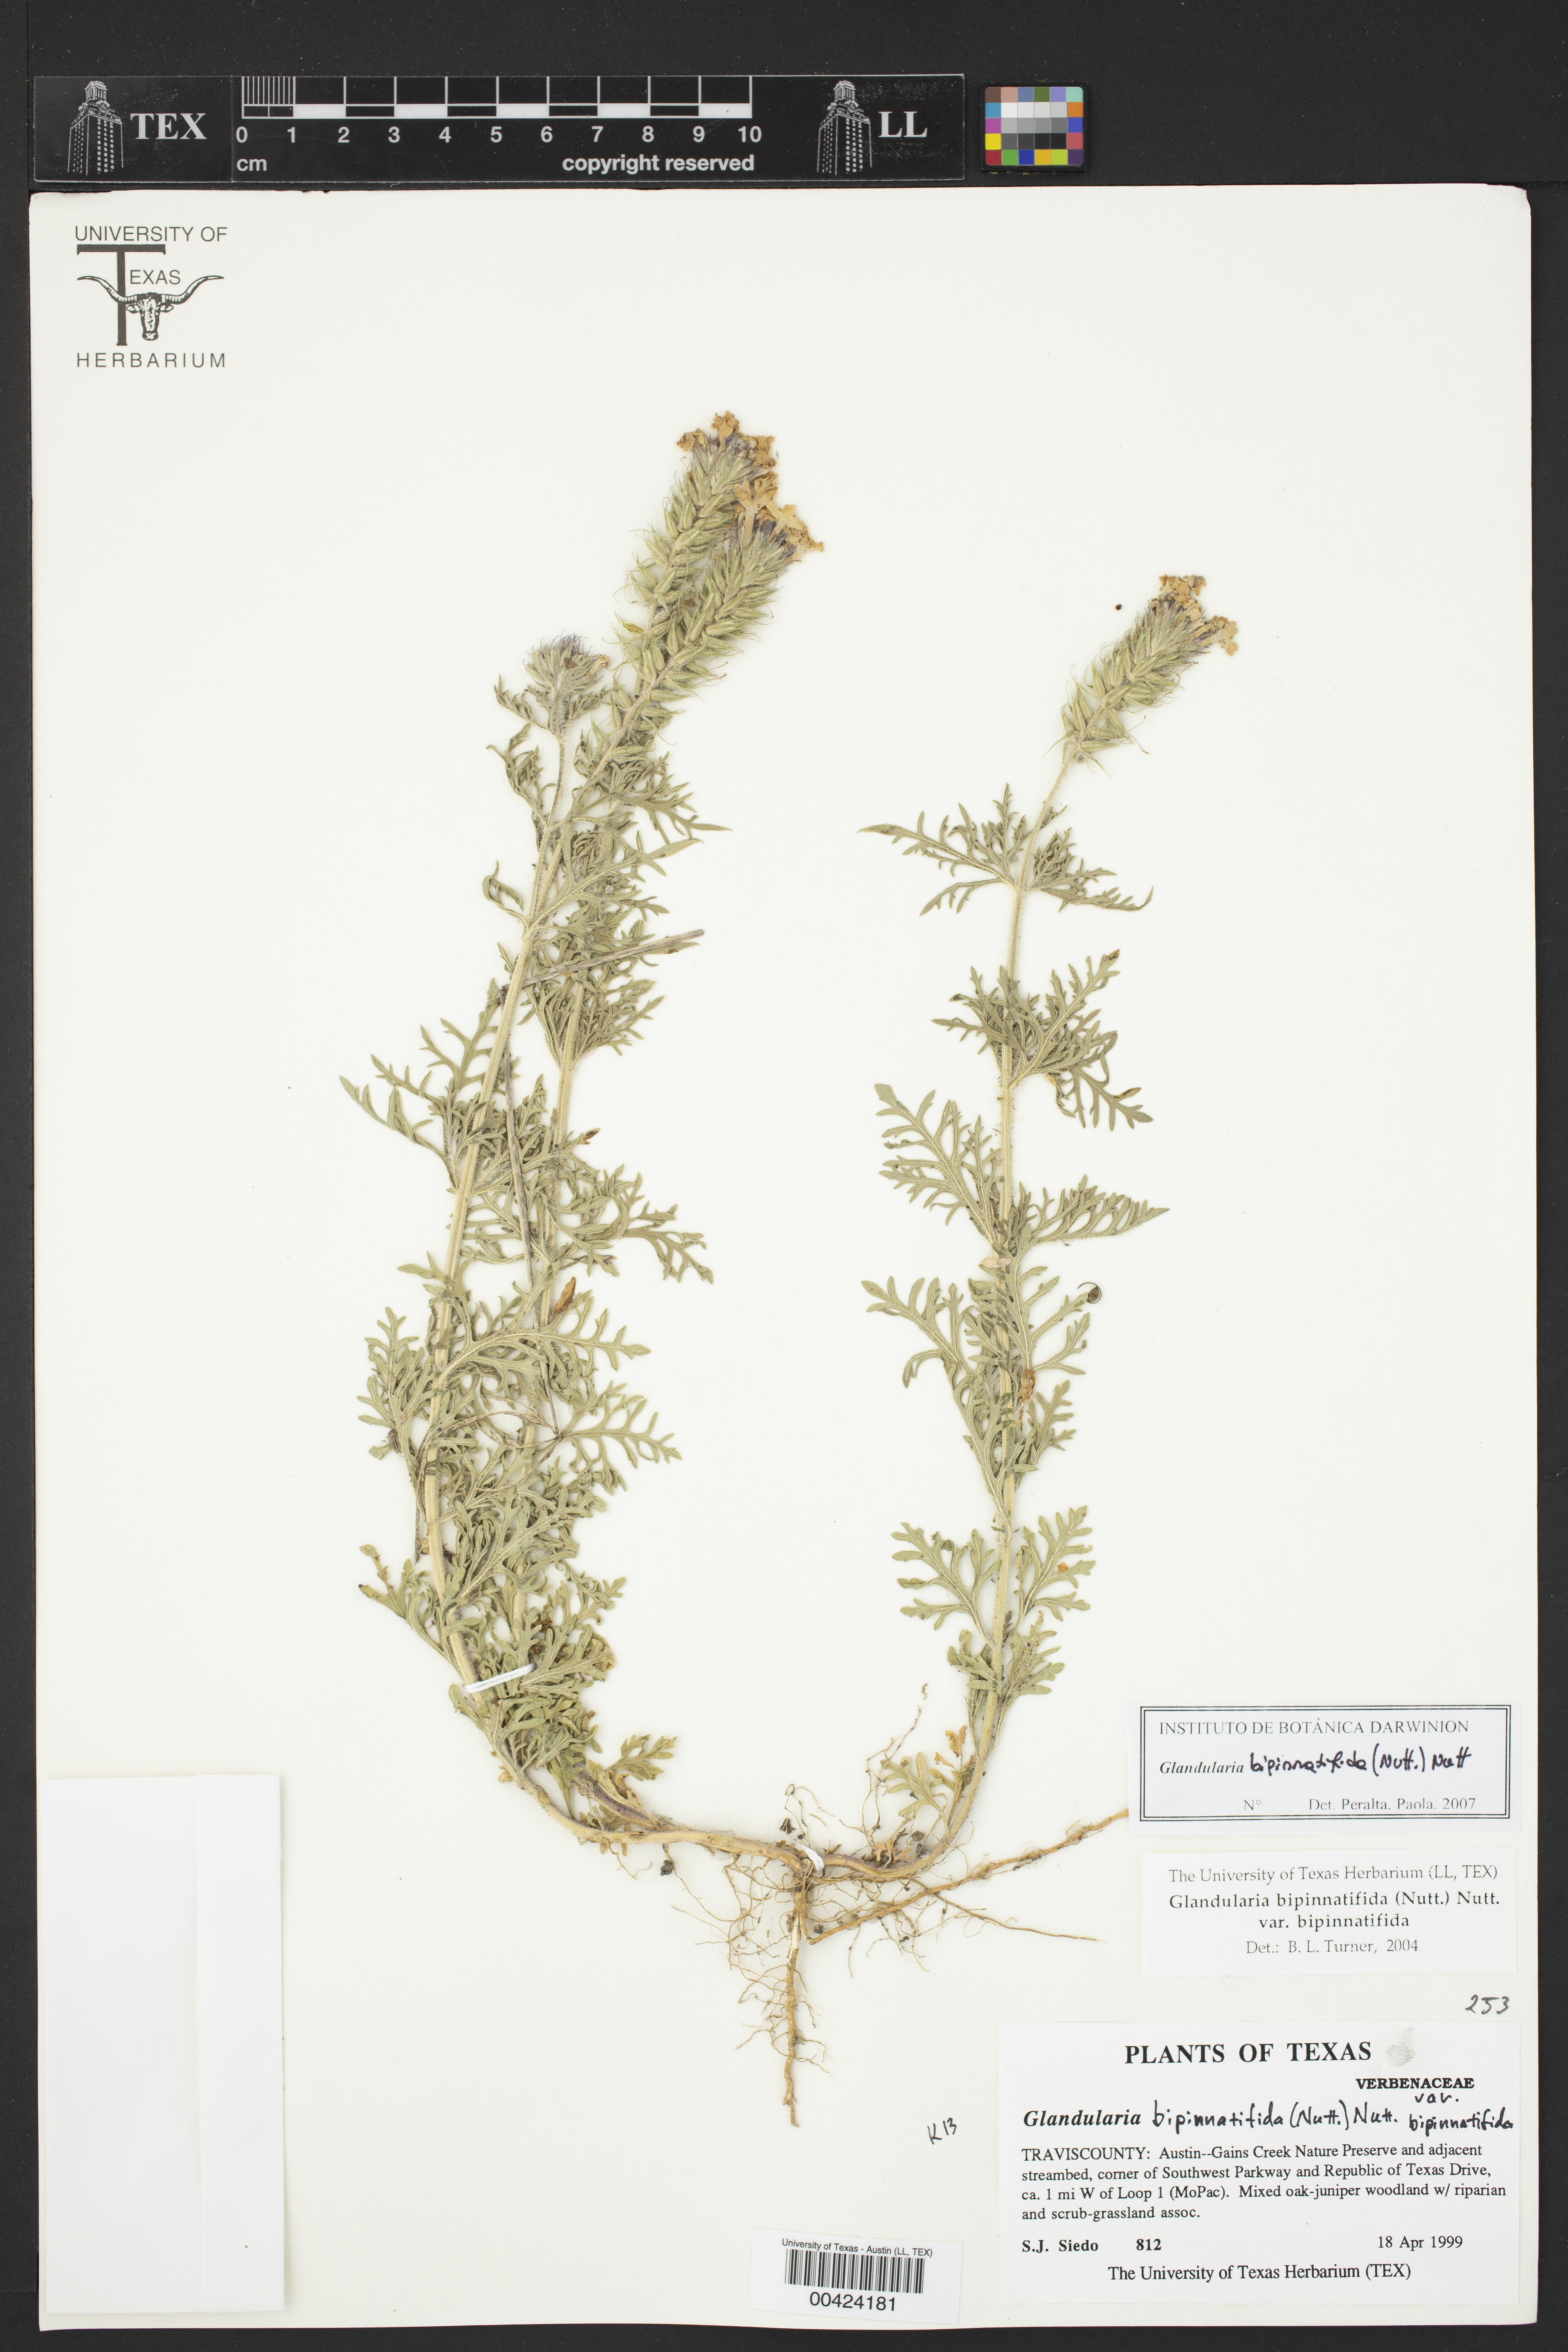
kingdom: Plantae
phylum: Tracheophyta
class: Magnoliopsida
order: Lamiales
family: Verbenaceae
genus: Verbena
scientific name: Verbena bipinnatifida
